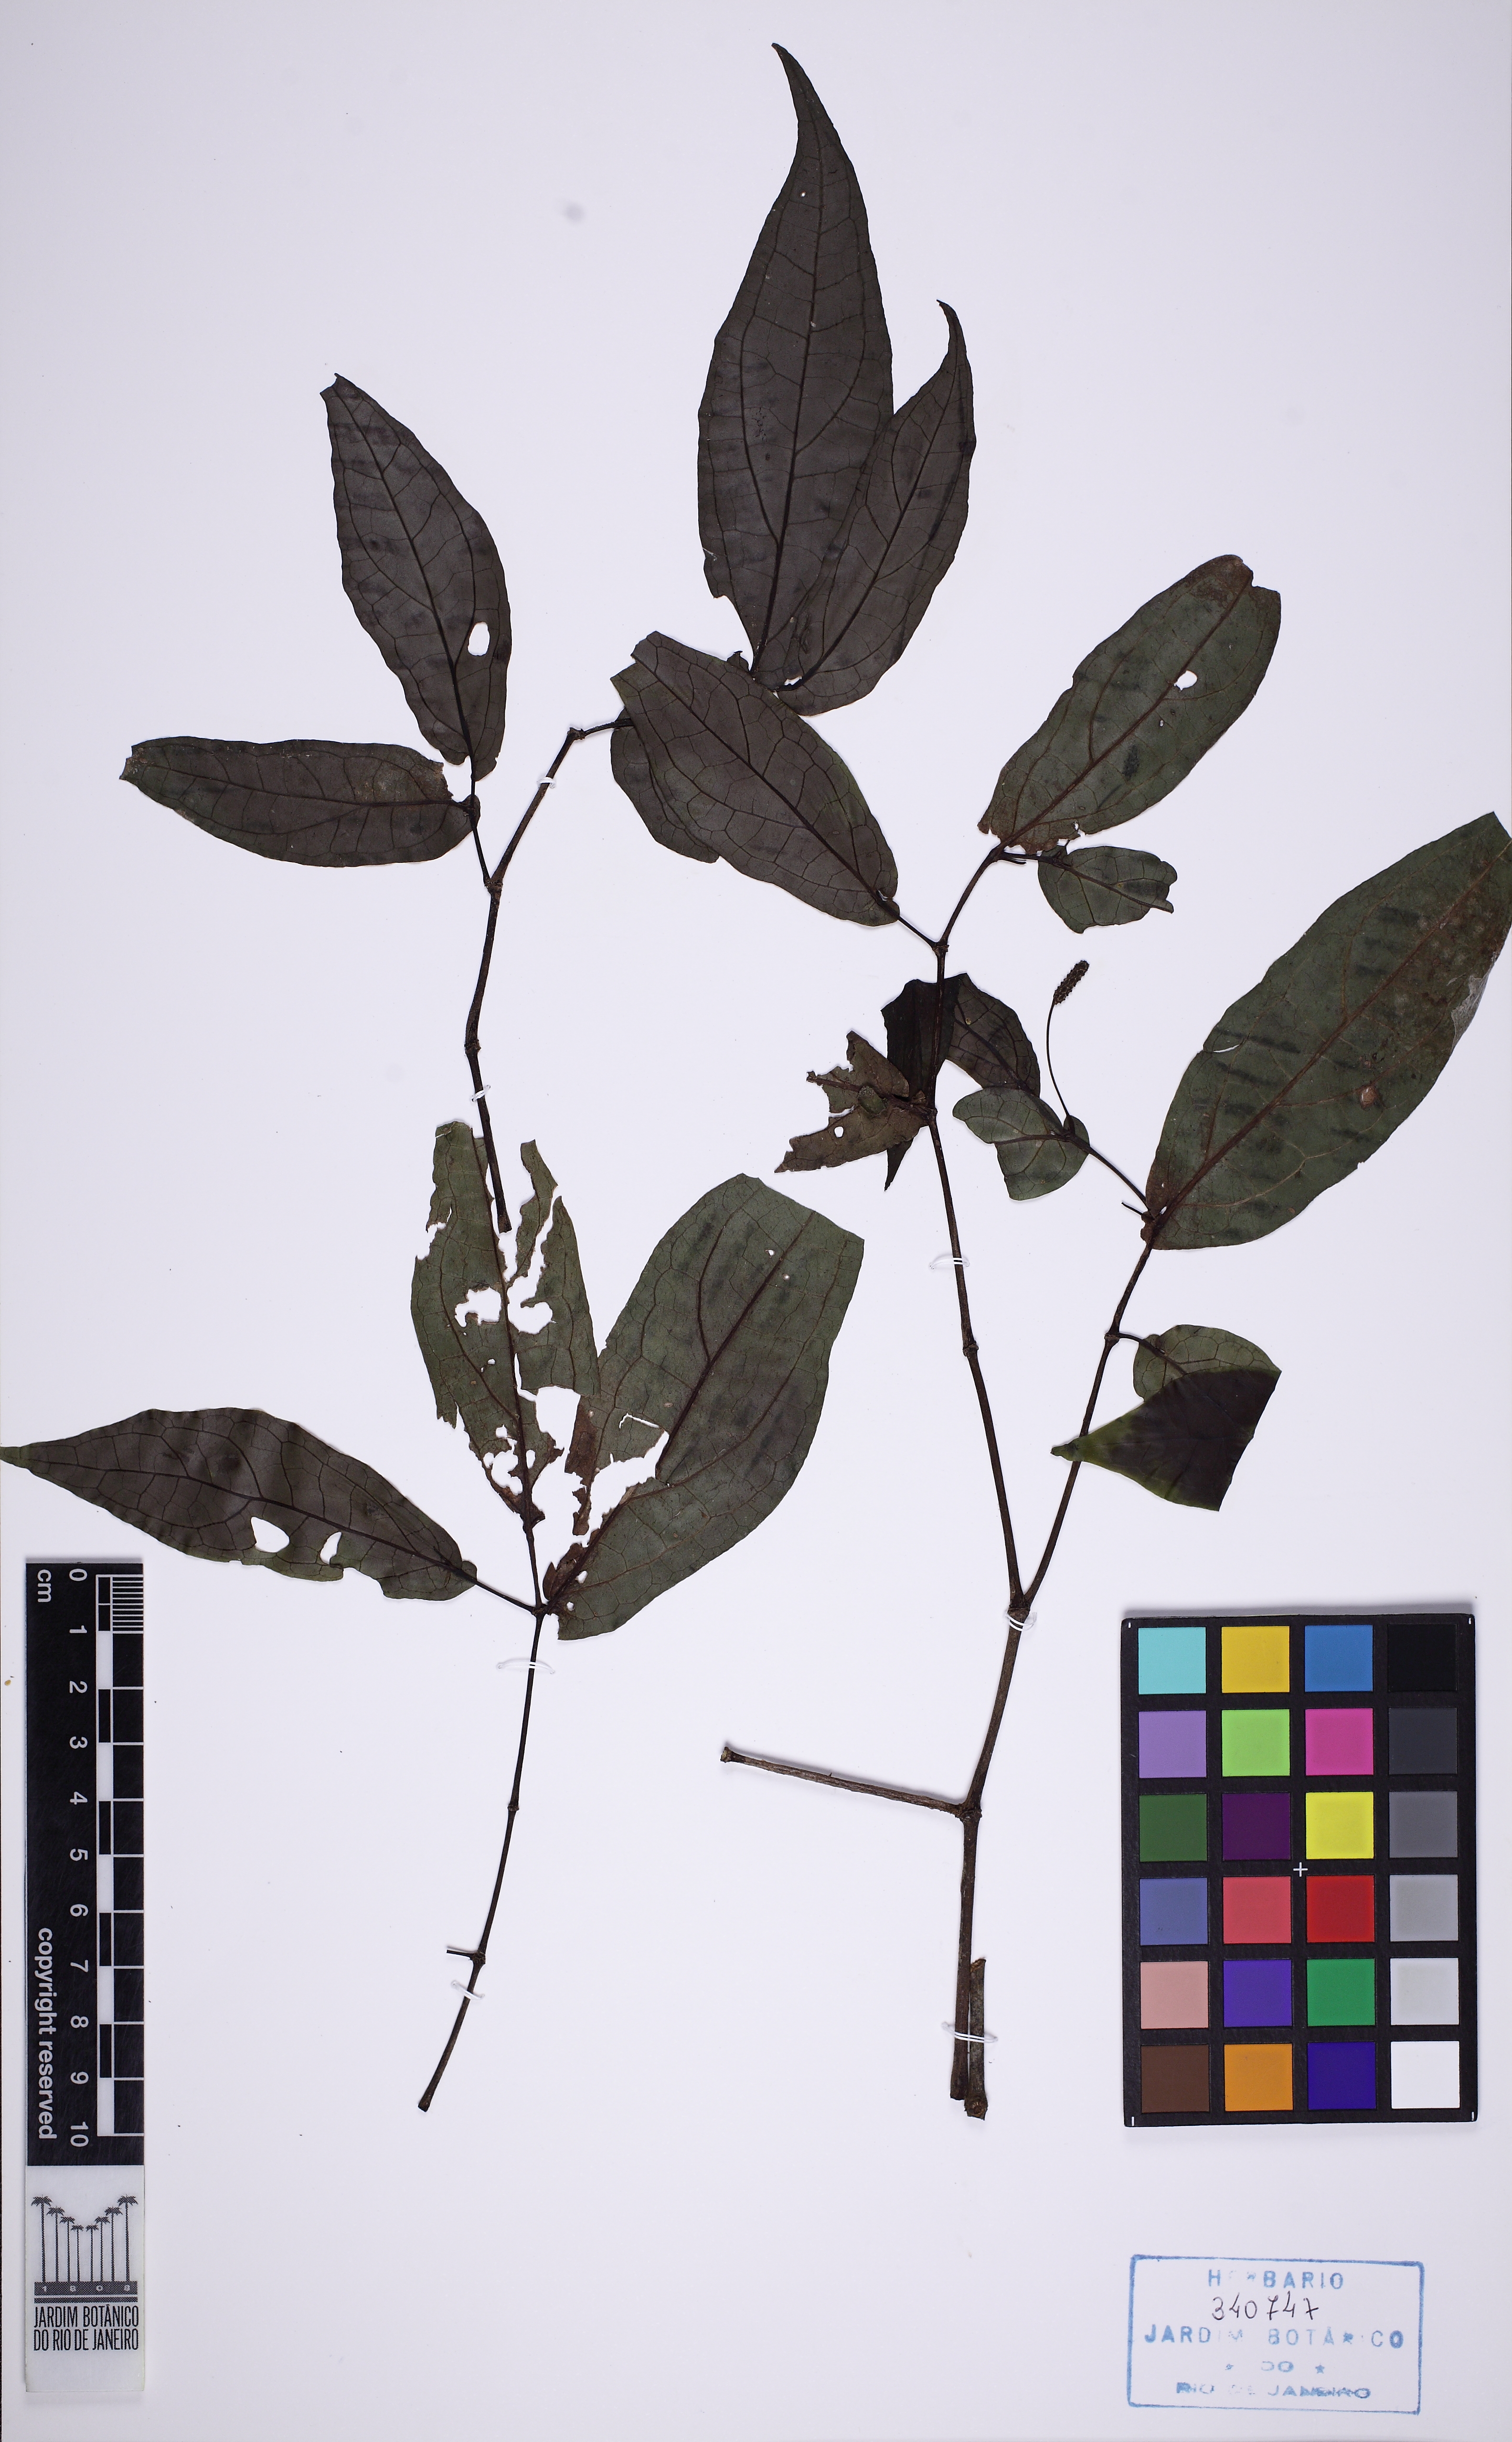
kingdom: Plantae
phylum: Tracheophyta
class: Magnoliopsida
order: Piperales
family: Piperaceae
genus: Piper
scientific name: Piper laevicarpum
